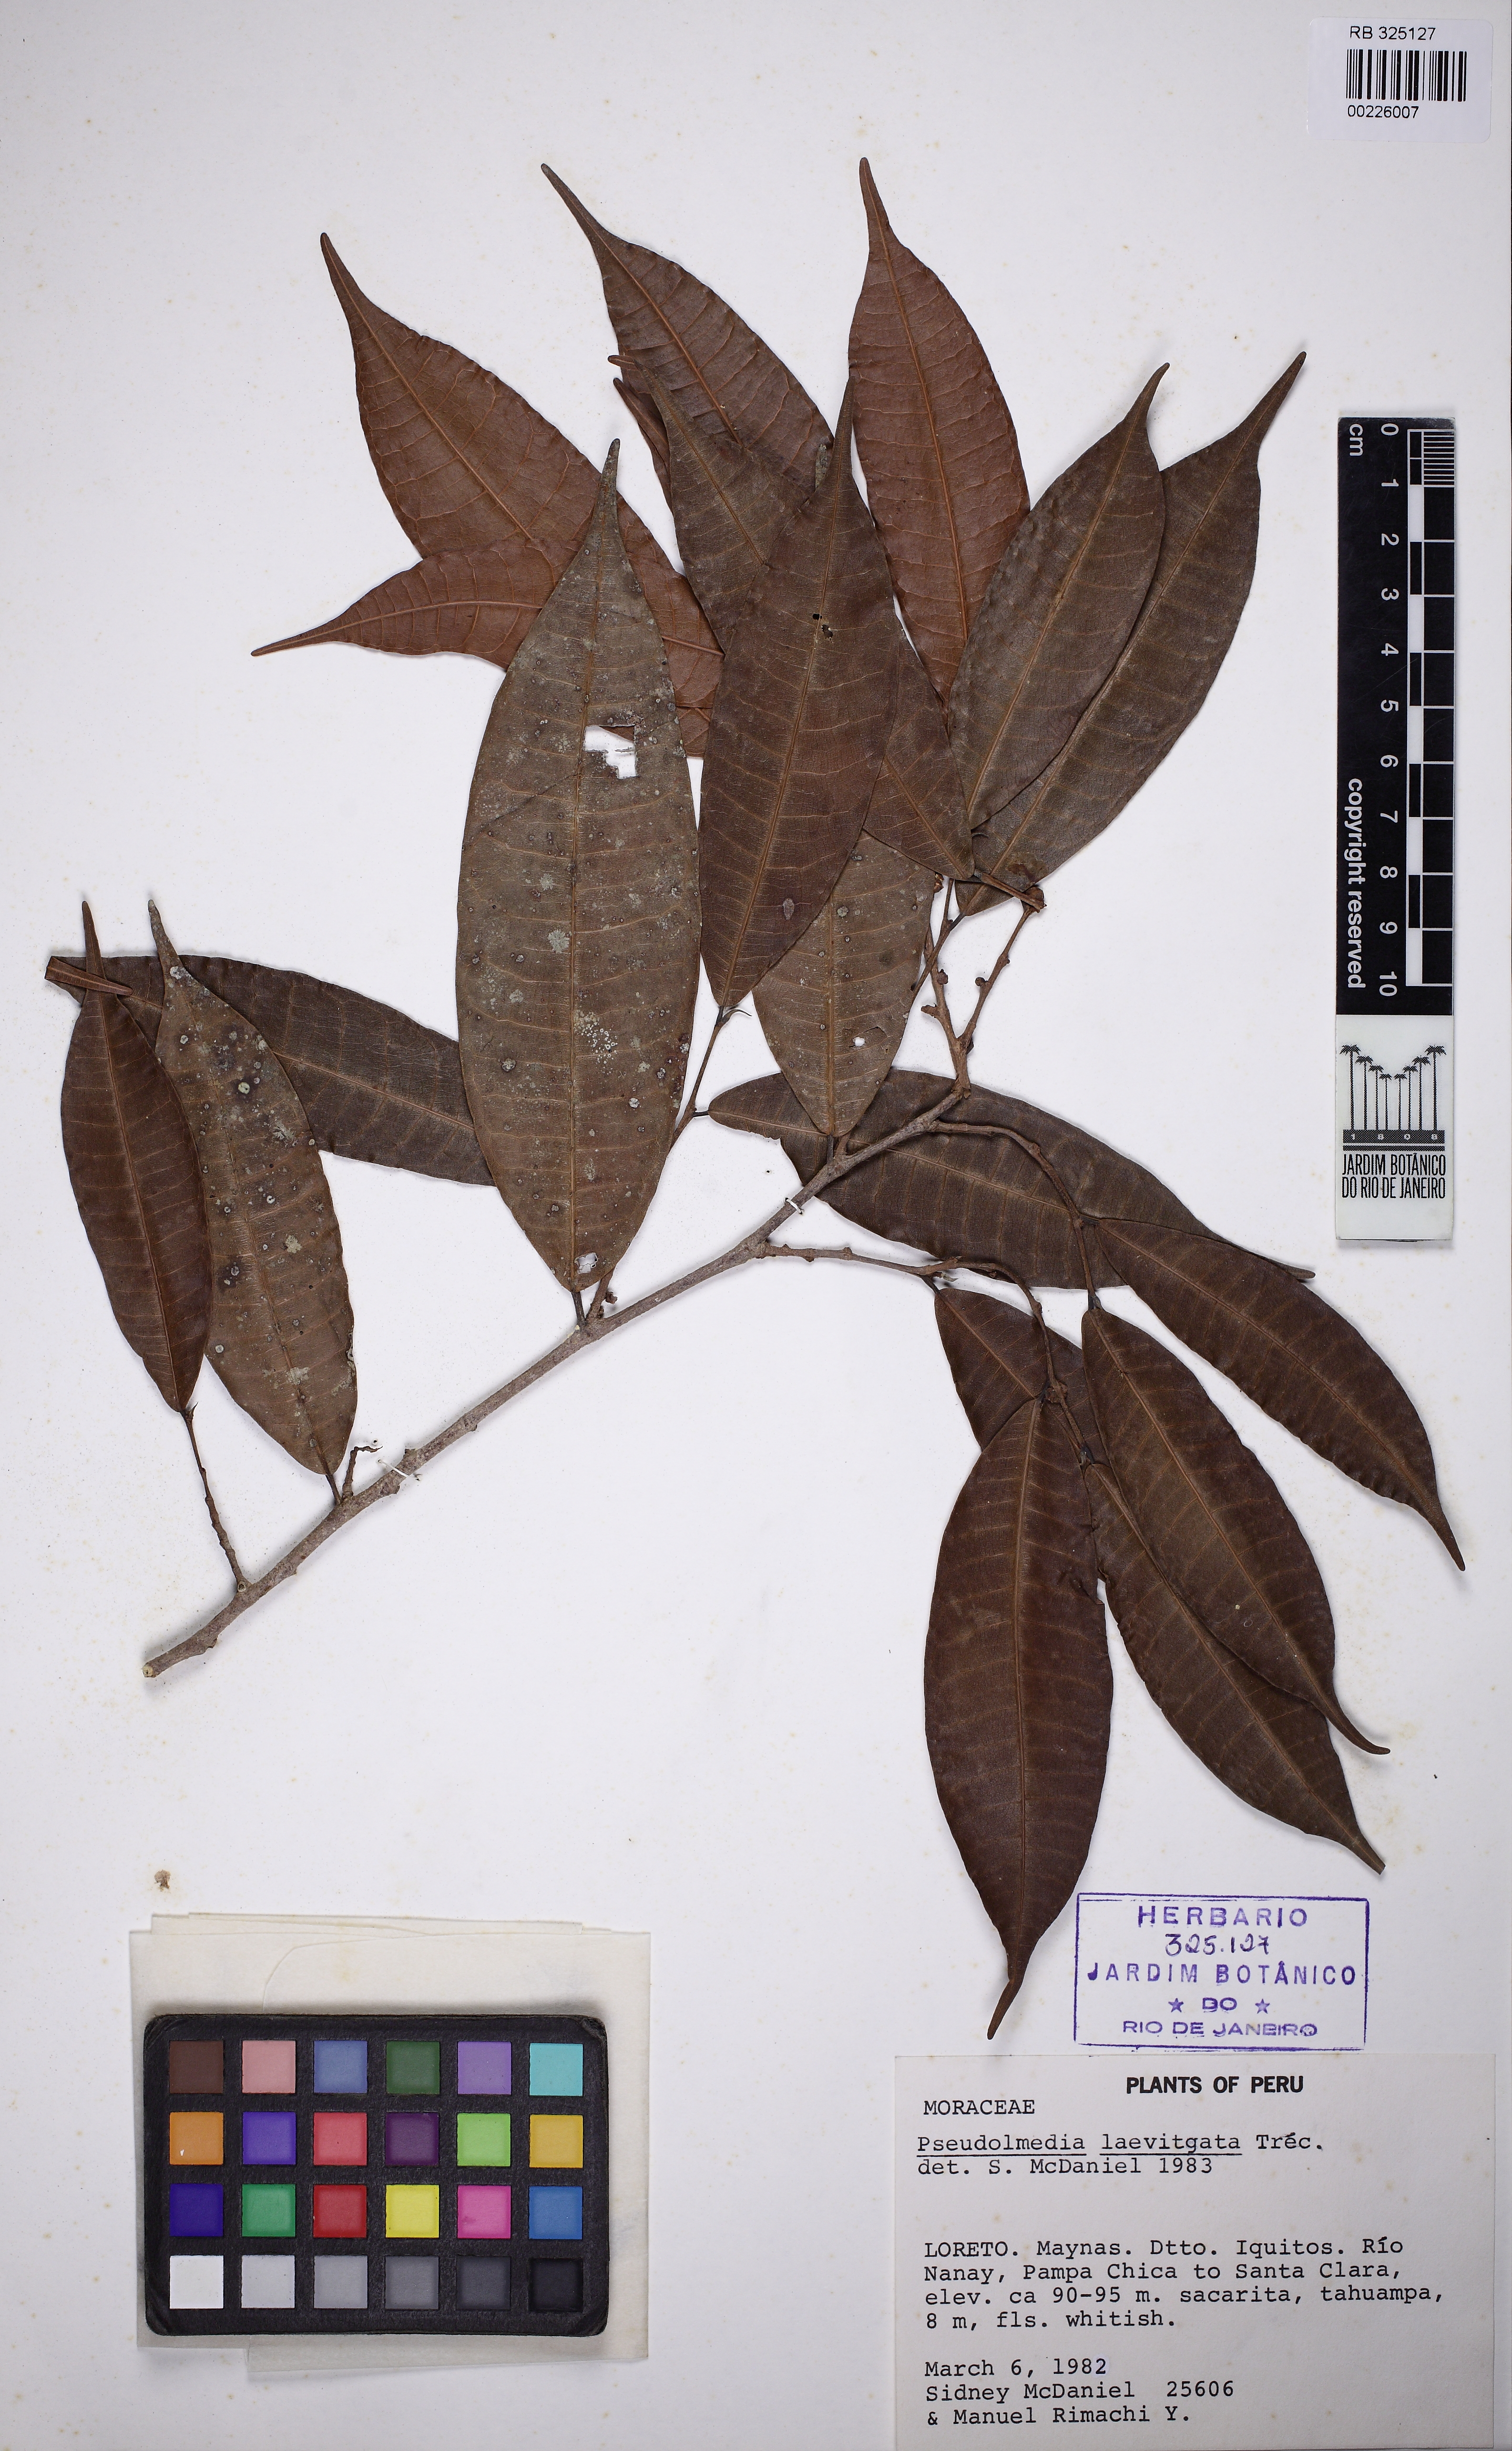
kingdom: Plantae
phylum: Tracheophyta
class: Magnoliopsida
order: Rosales
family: Moraceae
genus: Pseudolmedia
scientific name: Pseudolmedia laevigata
